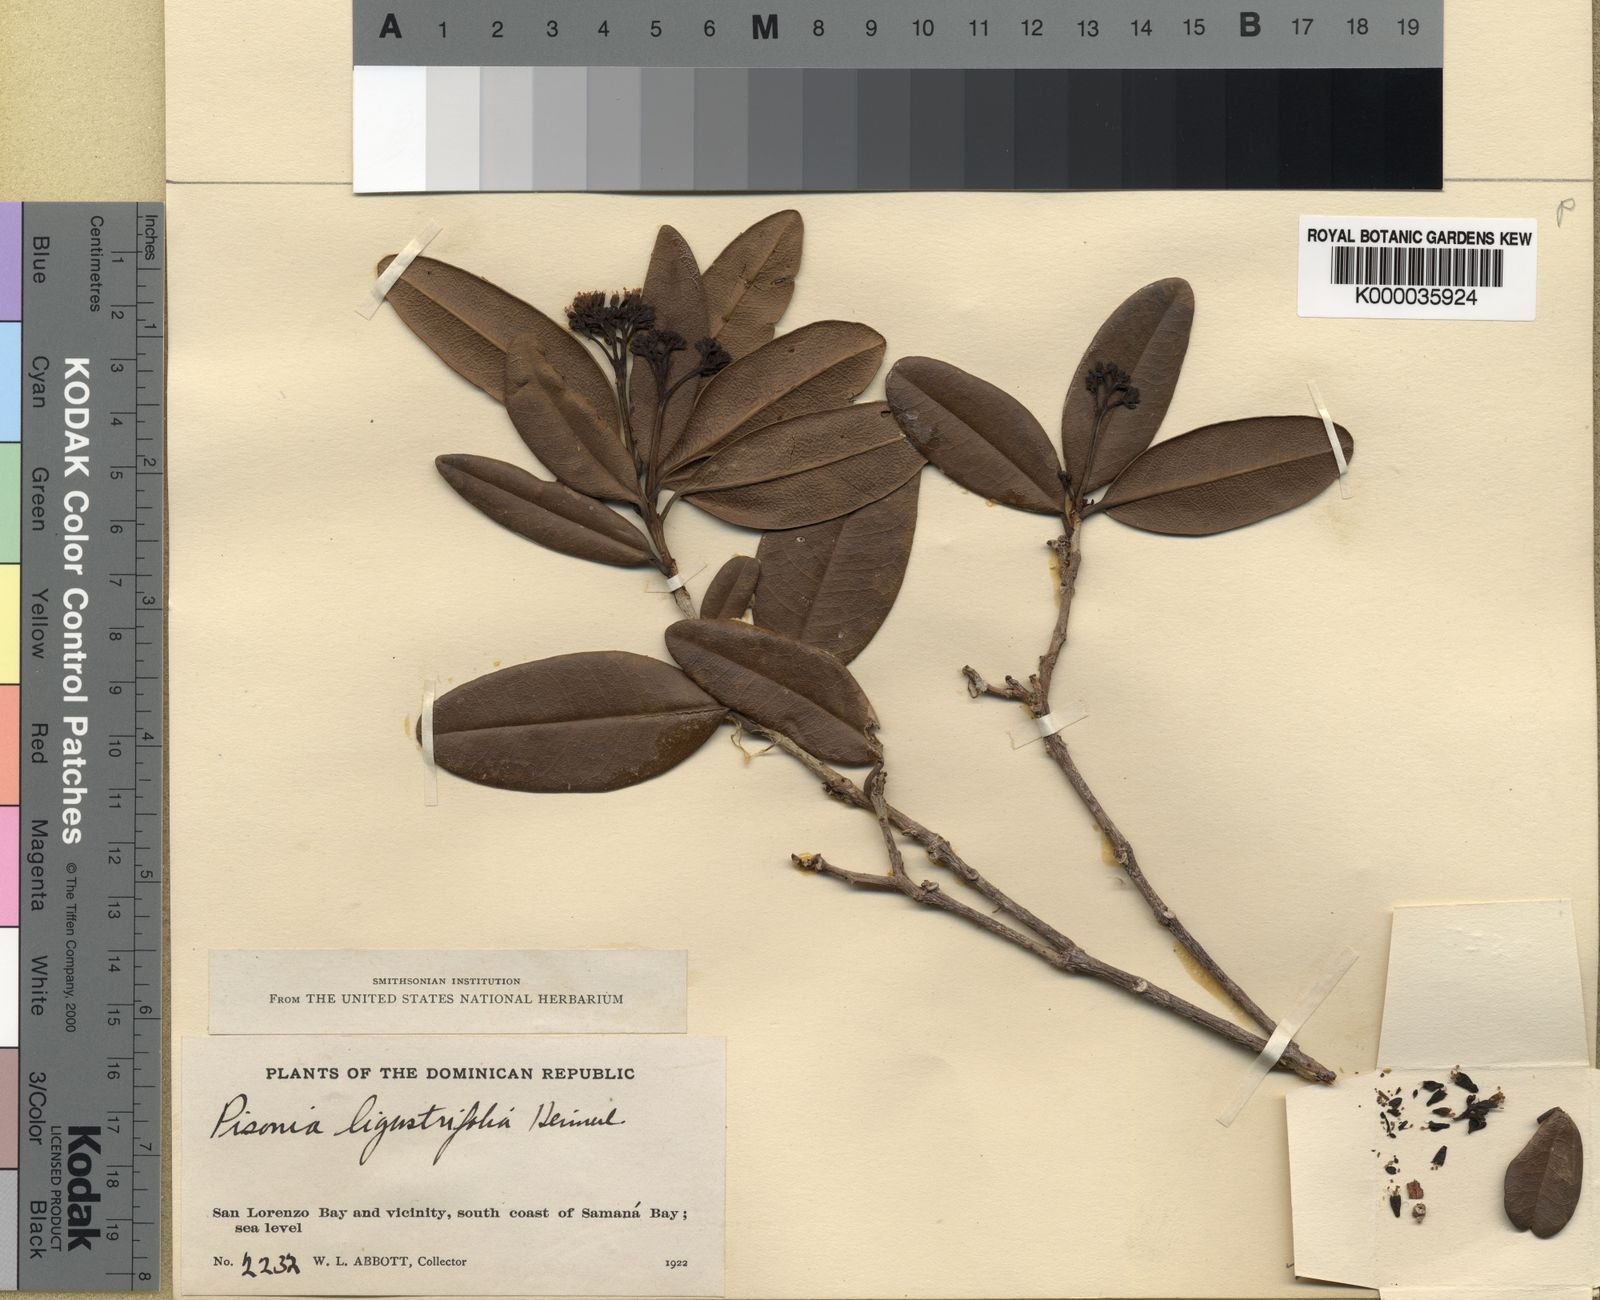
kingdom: Plantae
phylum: Tracheophyta
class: Magnoliopsida
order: Caryophyllales
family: Nyctaginaceae
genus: Guapira
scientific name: Guapira ligustrifolia
